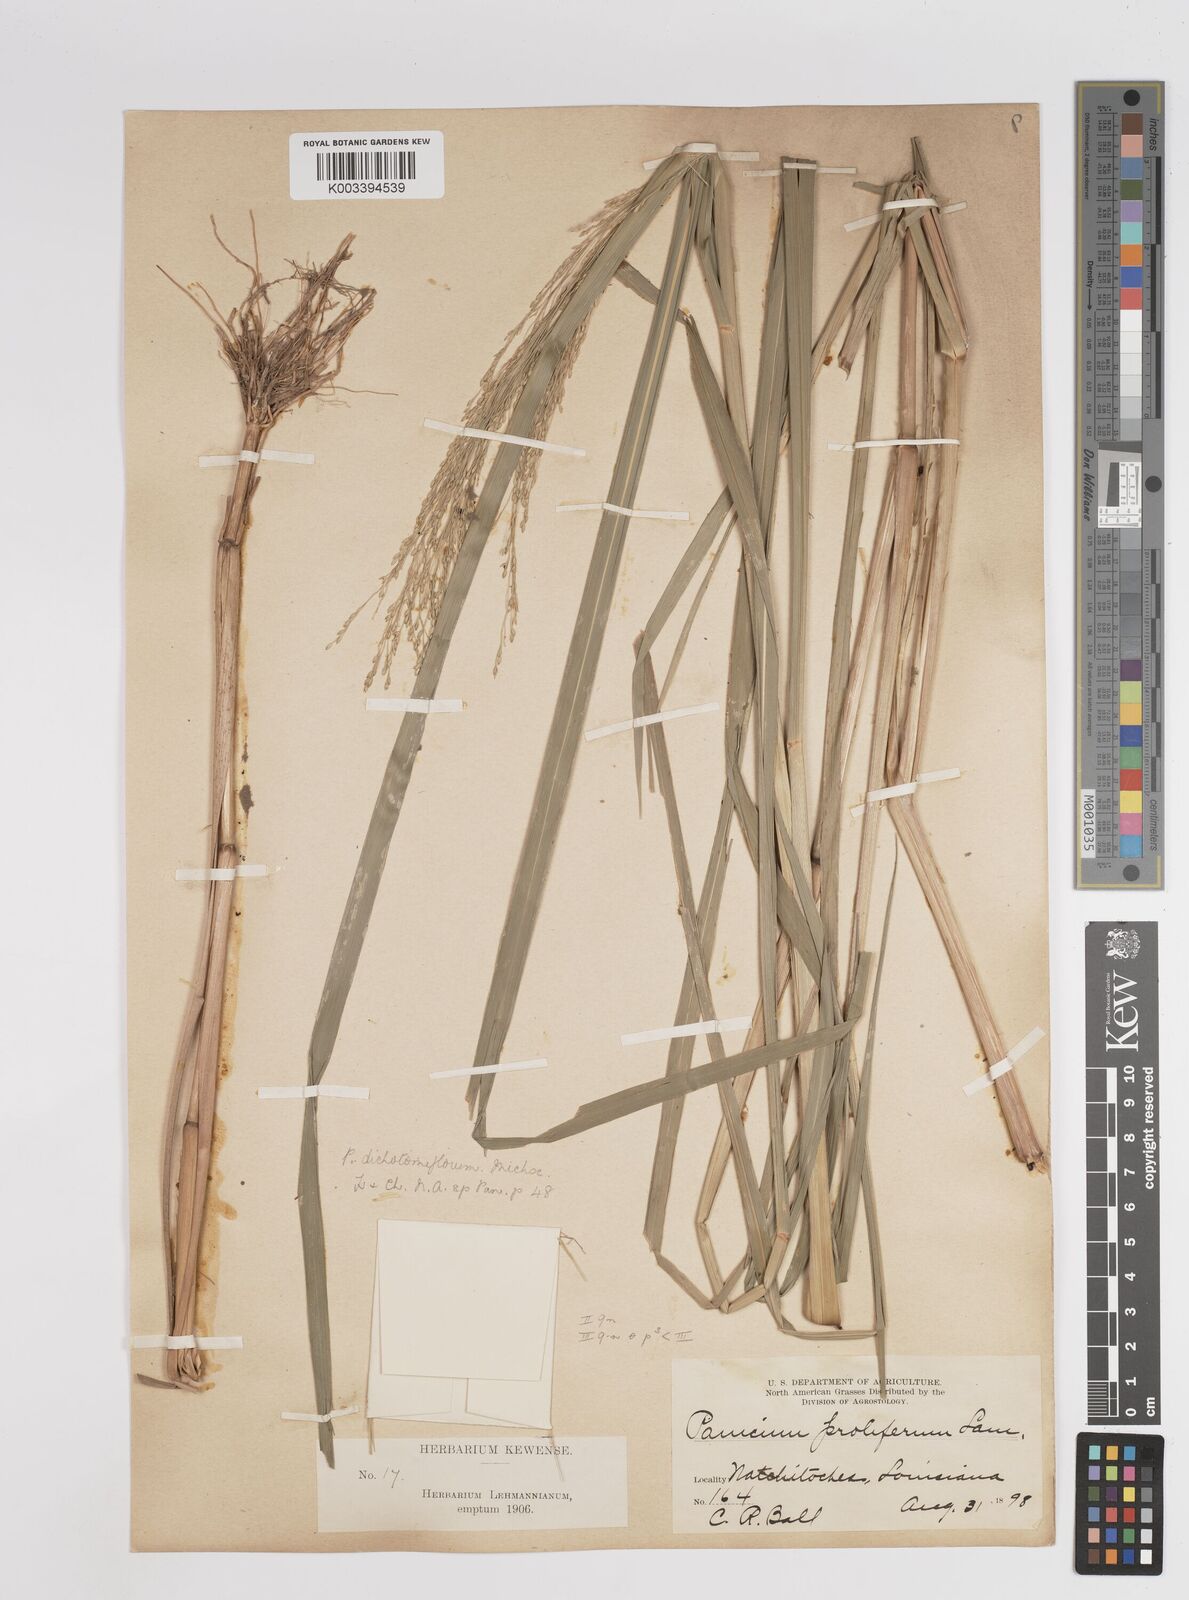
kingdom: Plantae
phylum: Tracheophyta
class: Liliopsida
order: Poales
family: Poaceae
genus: Panicum
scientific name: Panicum bartowense
